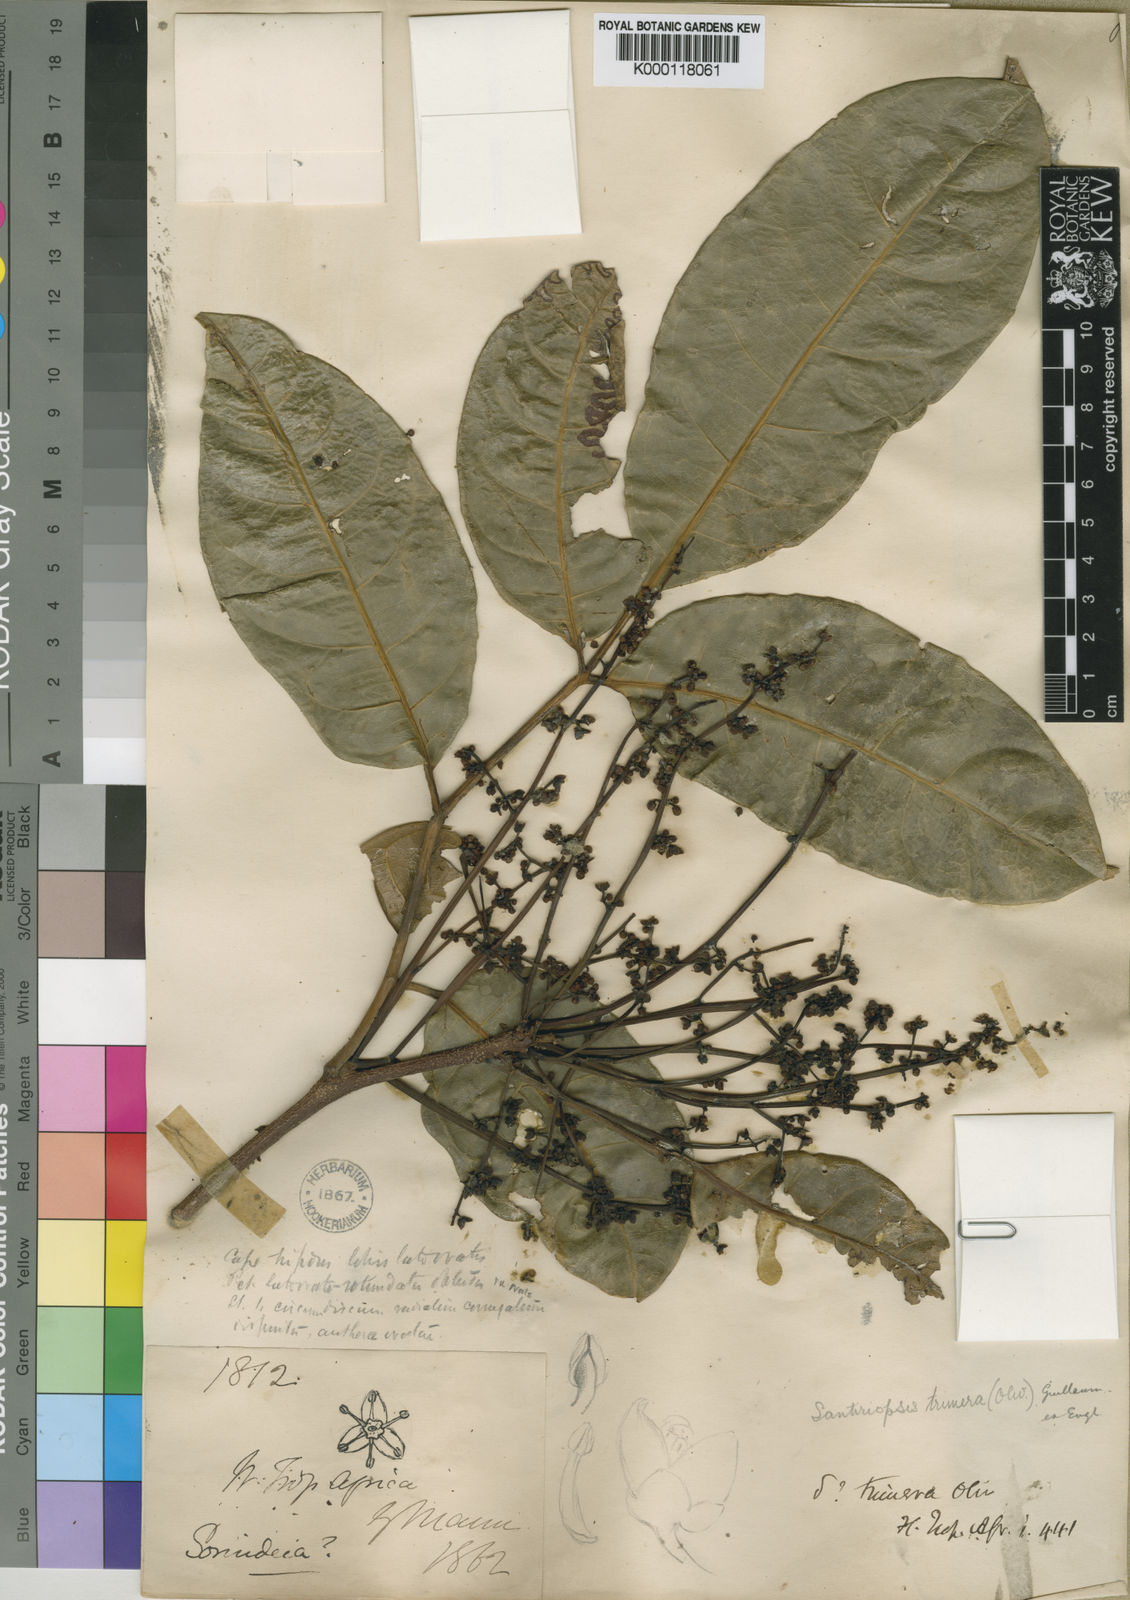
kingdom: Plantae
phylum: Tracheophyta
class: Magnoliopsida
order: Sapindales
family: Burseraceae
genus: Pachylobus
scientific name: Pachylobus trimerus
